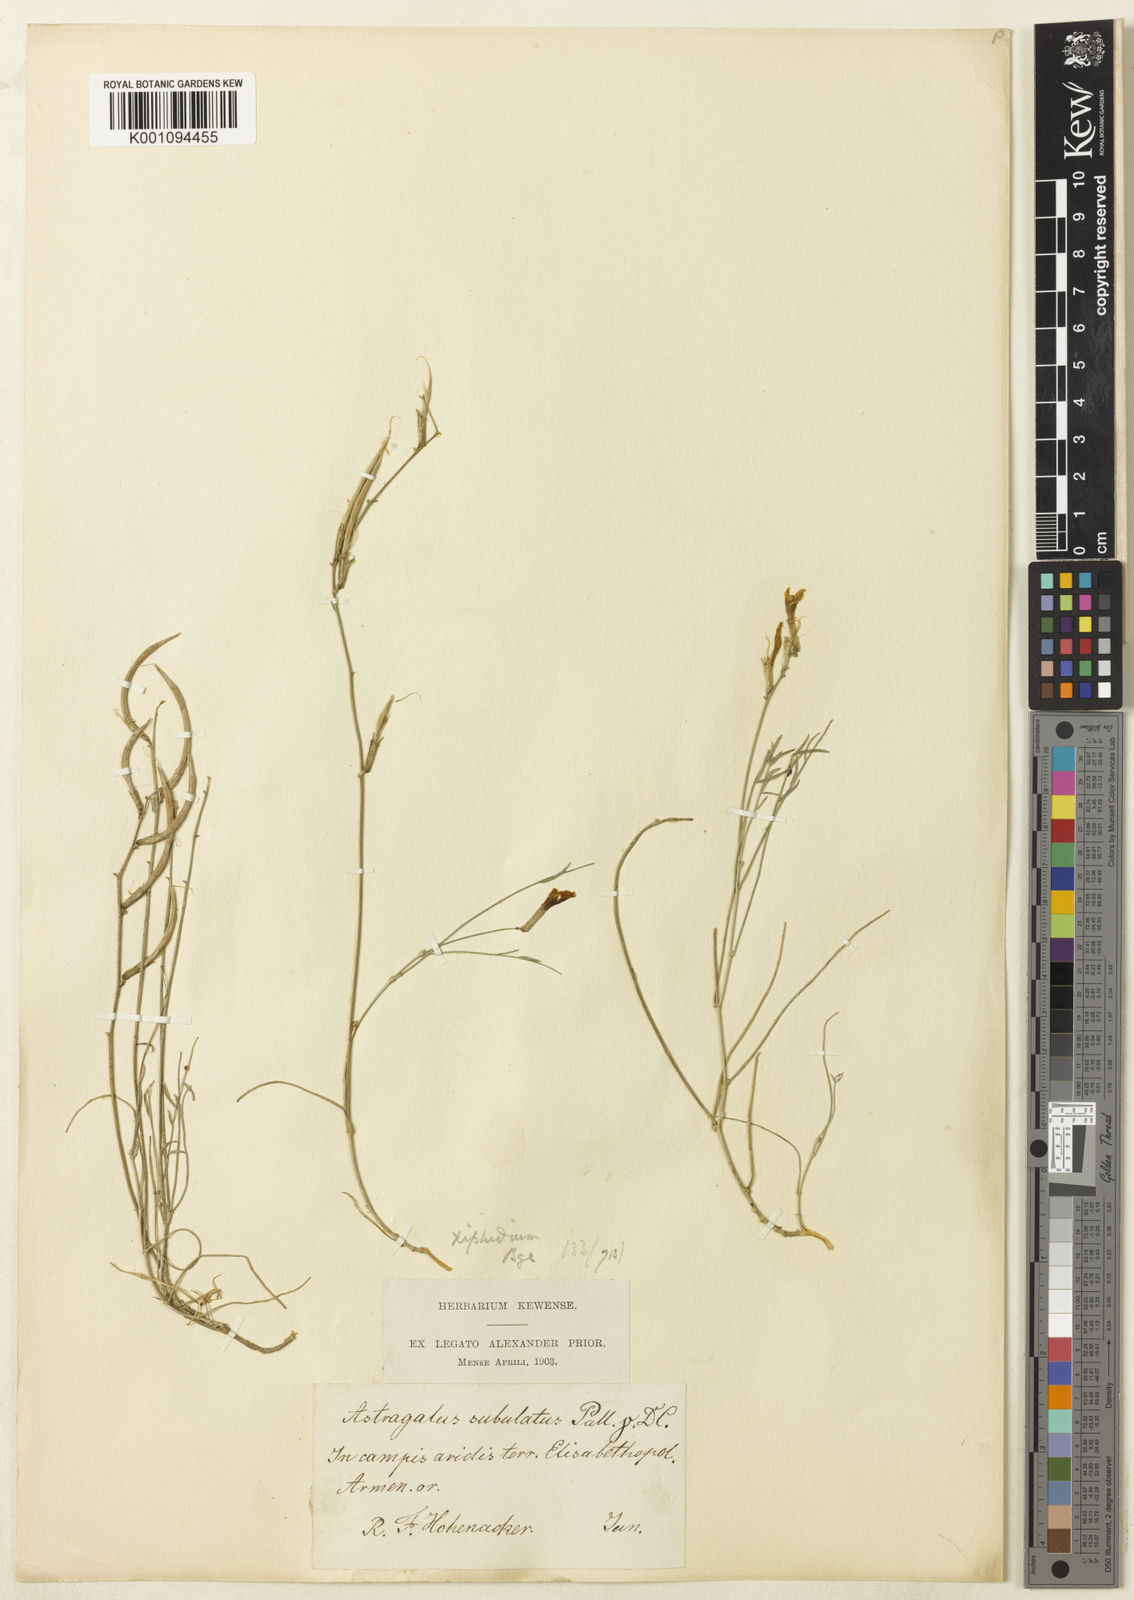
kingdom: Plantae
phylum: Tracheophyta
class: Magnoliopsida
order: Fabales
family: Fabaceae
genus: Astragalus
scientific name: Astragalus
